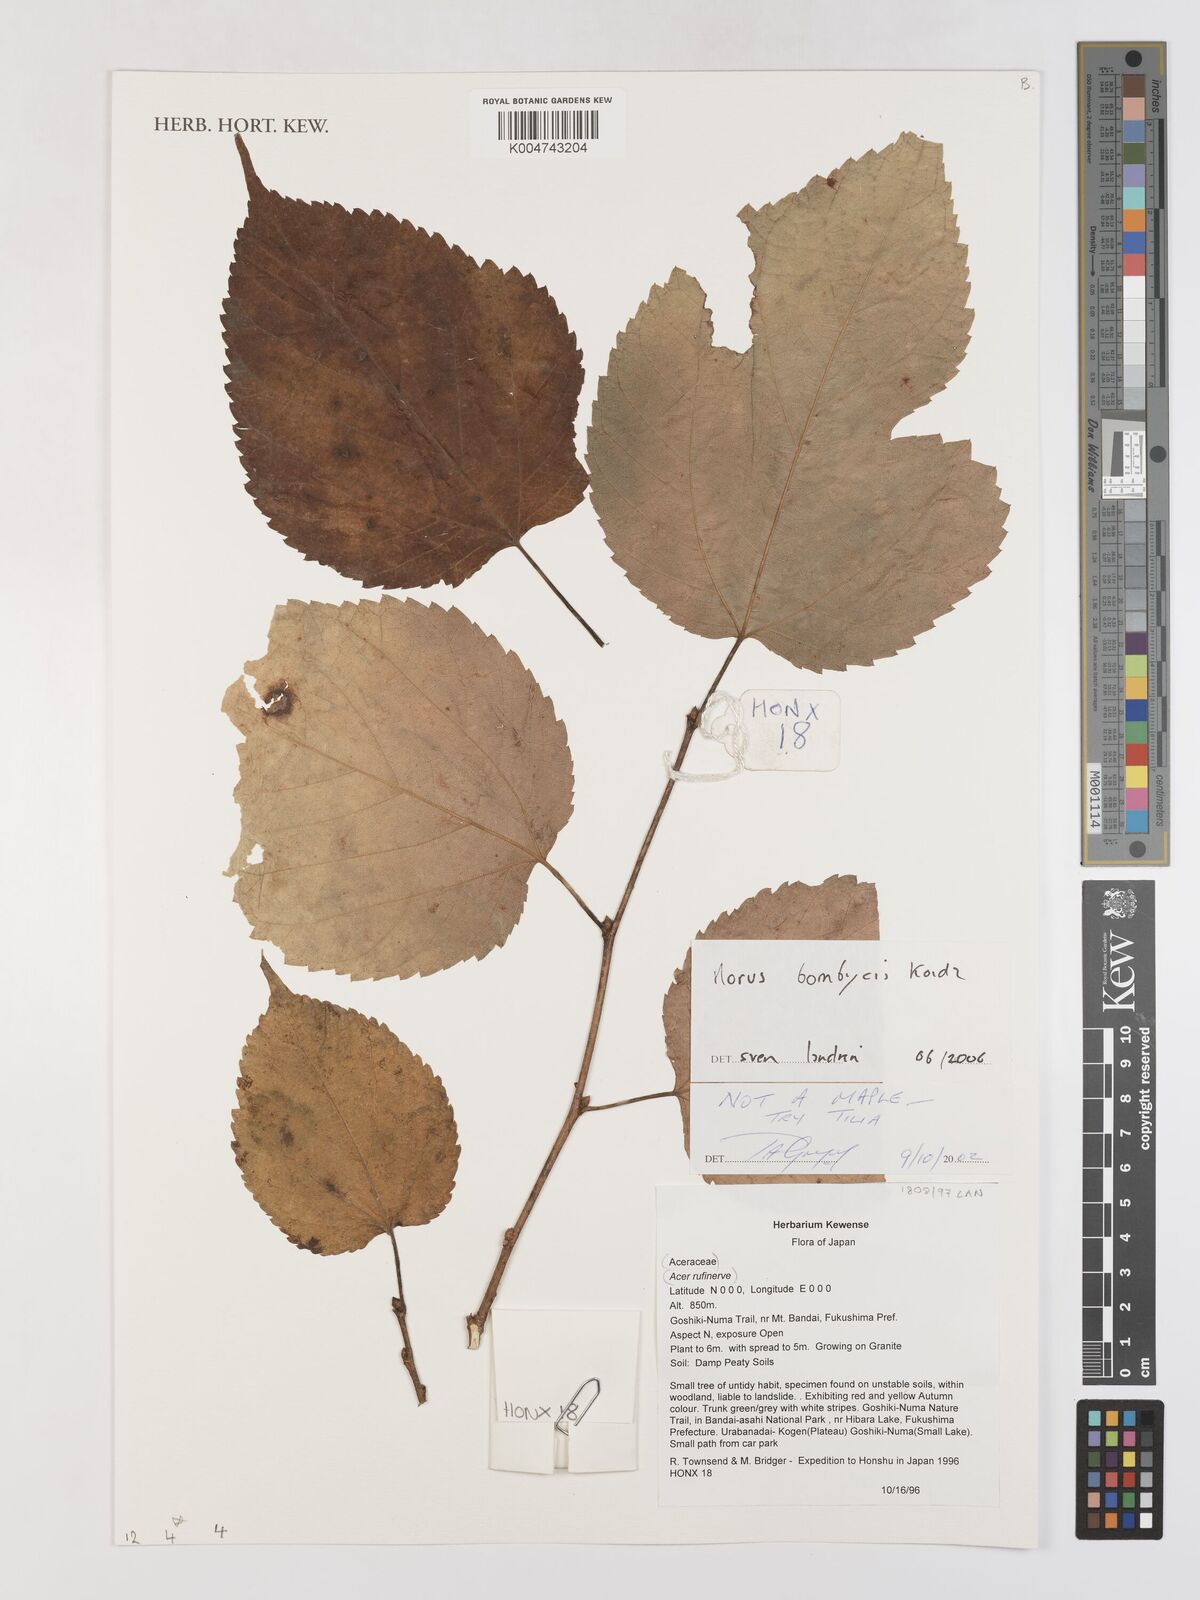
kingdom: Plantae
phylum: Tracheophyta
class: Magnoliopsida
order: Rosales
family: Moraceae
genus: Morus
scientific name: Morus indica
